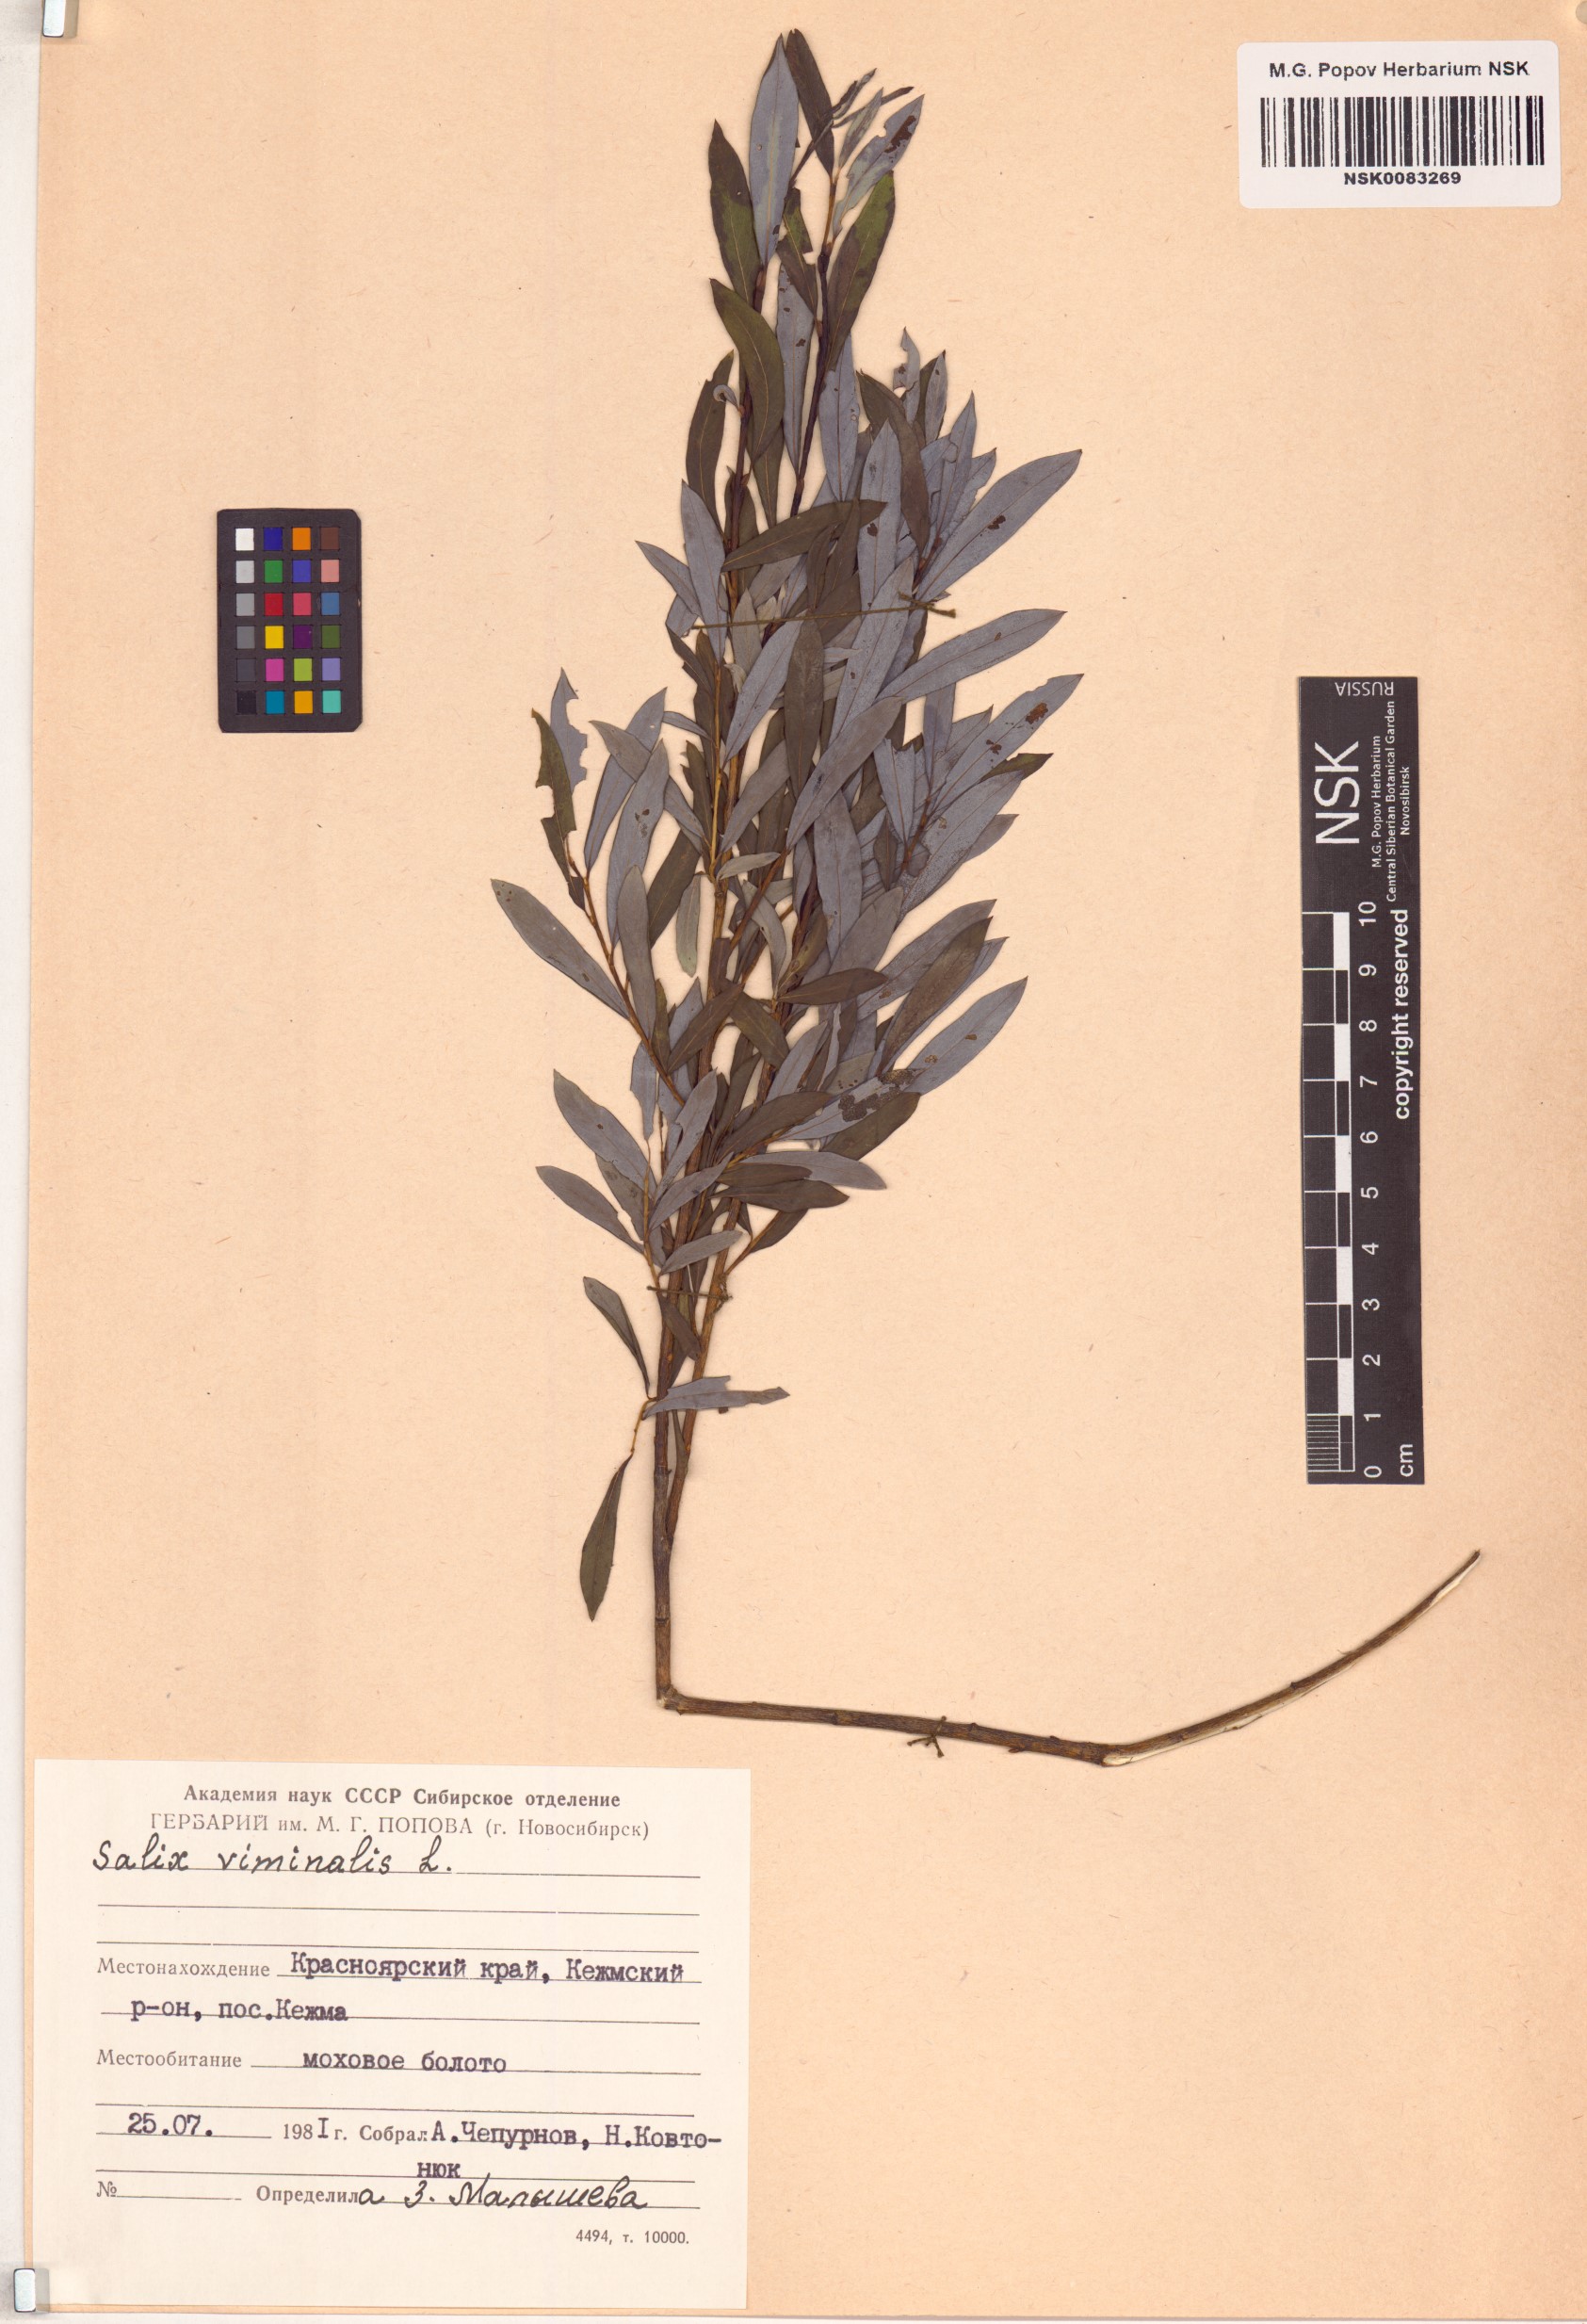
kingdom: Plantae
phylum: Tracheophyta
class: Magnoliopsida
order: Malpighiales
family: Salicaceae
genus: Salix
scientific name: Salix viminalis
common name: Osier
